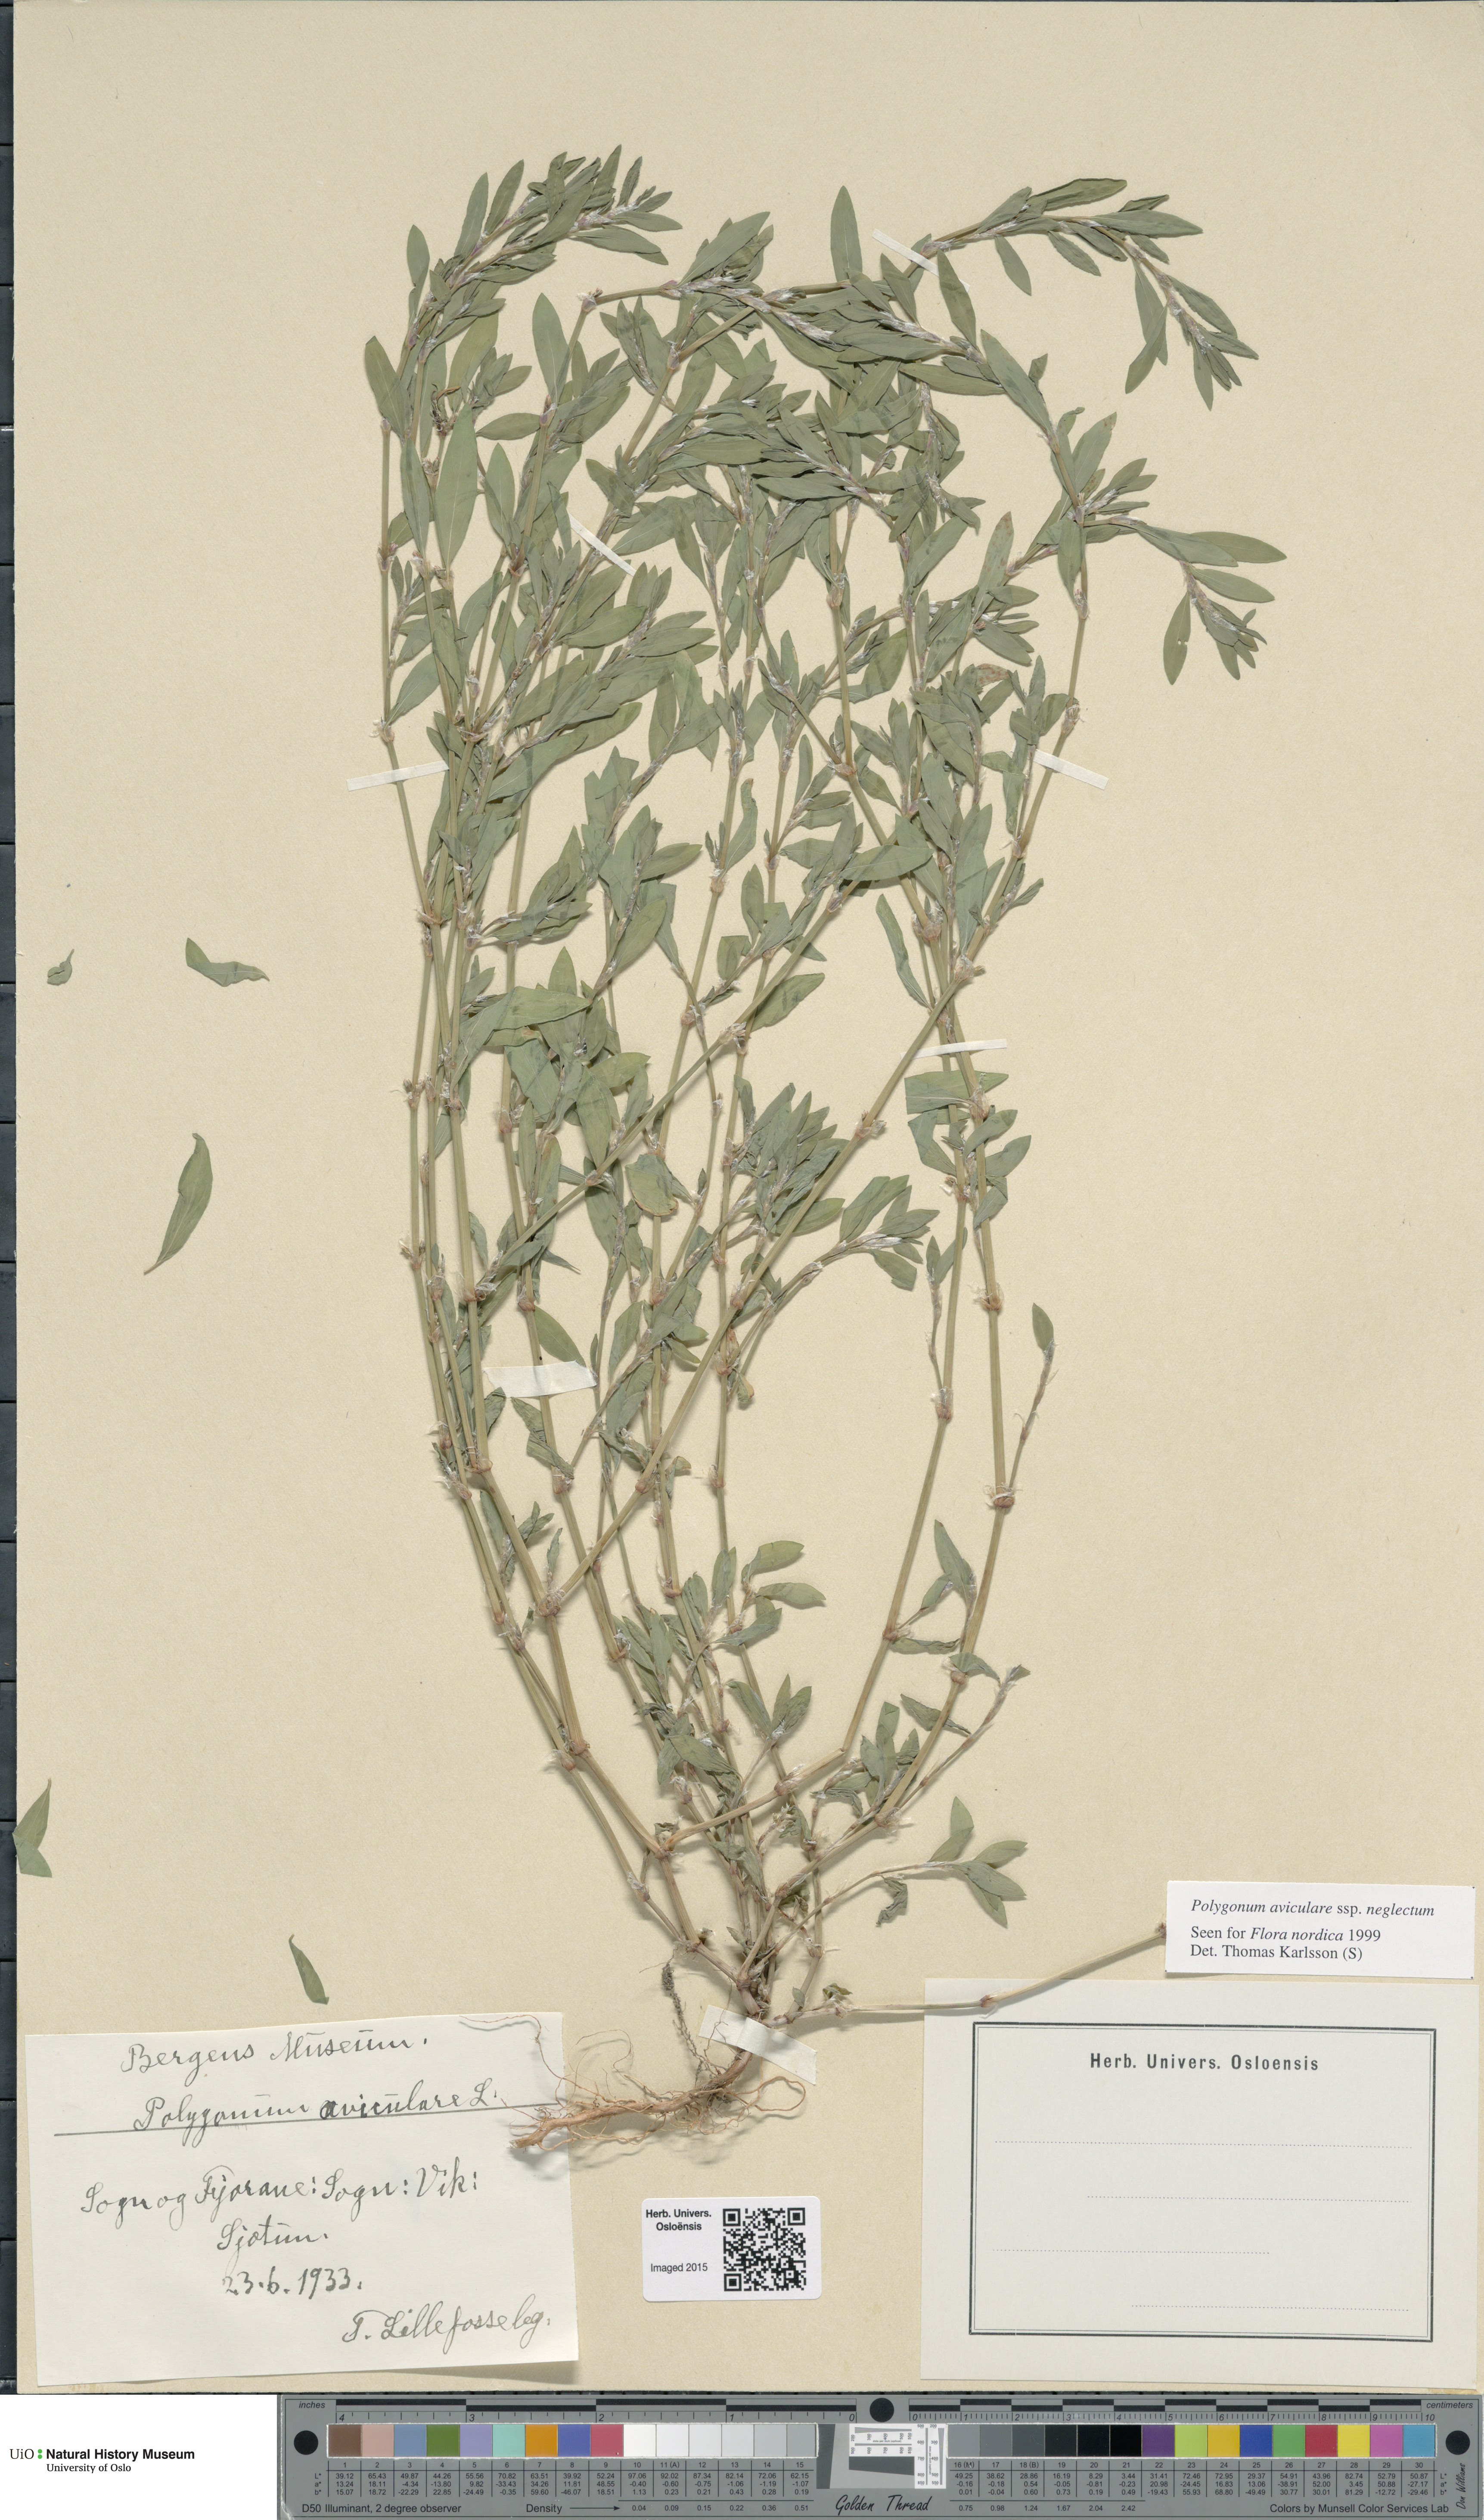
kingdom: Plantae
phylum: Tracheophyta
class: Magnoliopsida
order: Caryophyllales
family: Polygonaceae
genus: Polygonum
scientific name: Polygonum aviculare
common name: Prostrate knotweed
